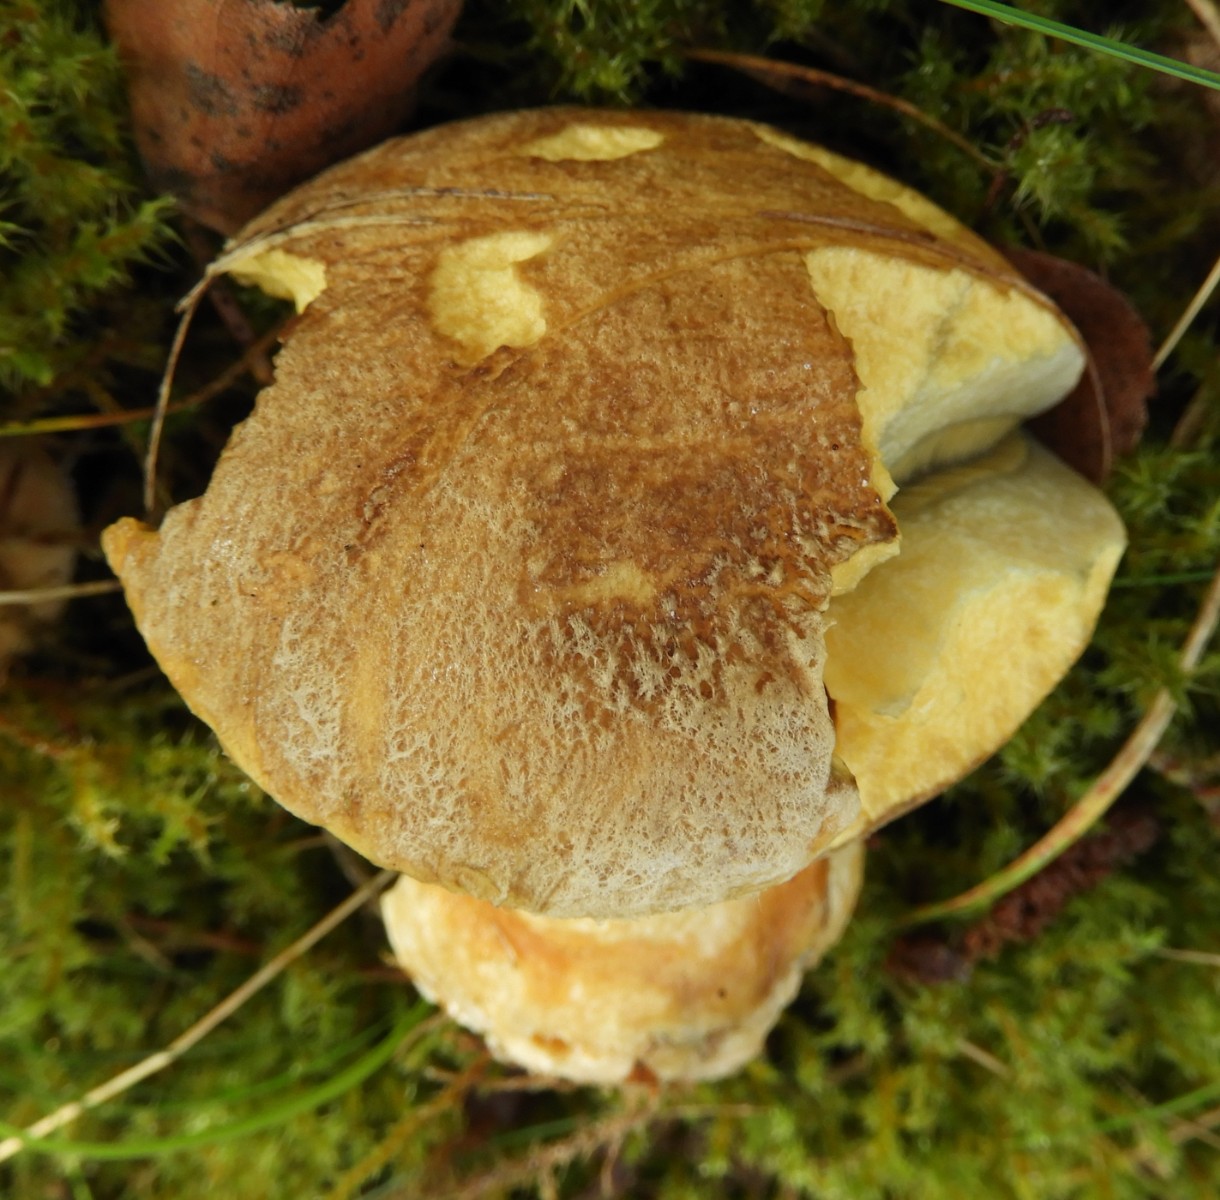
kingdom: Fungi
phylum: Basidiomycota
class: Agaricomycetes
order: Boletales
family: Suillaceae
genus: Suillus
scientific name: Suillus variegatus
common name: broget slimrørhat
